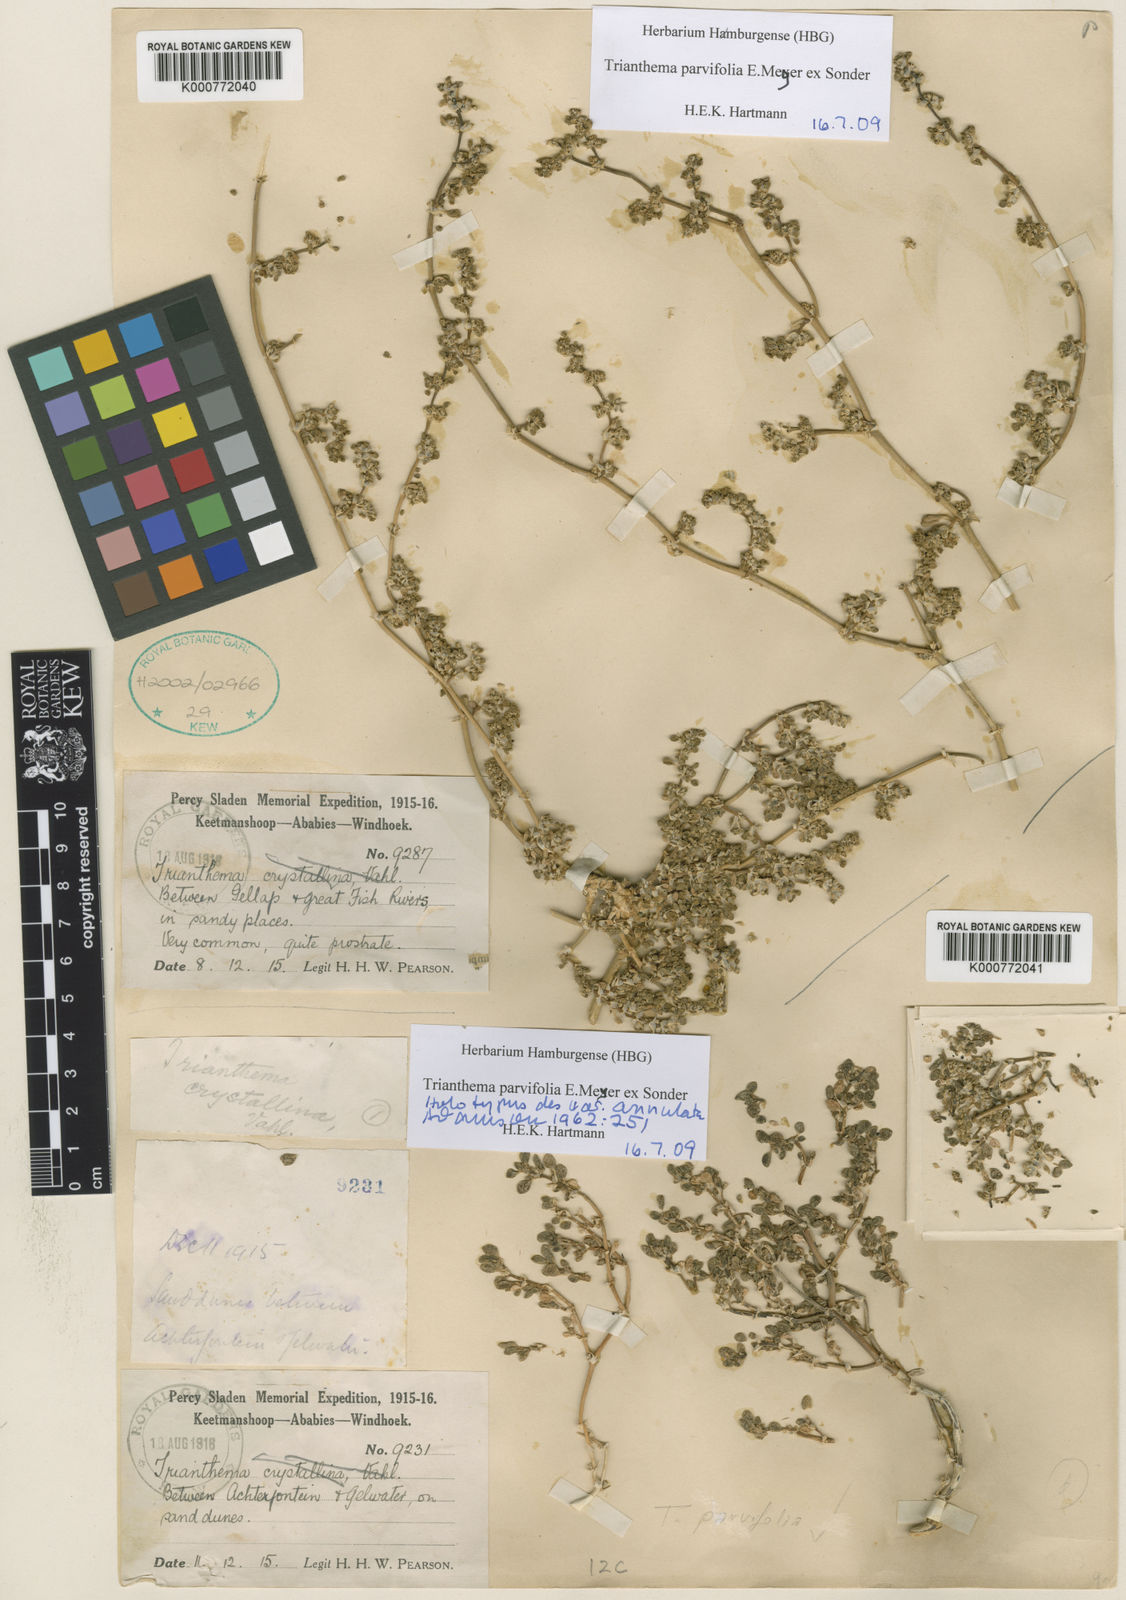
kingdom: Plantae
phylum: Tracheophyta
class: Magnoliopsida
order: Caryophyllales
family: Aizoaceae
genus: Trianthema
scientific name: Trianthema parvifolium
